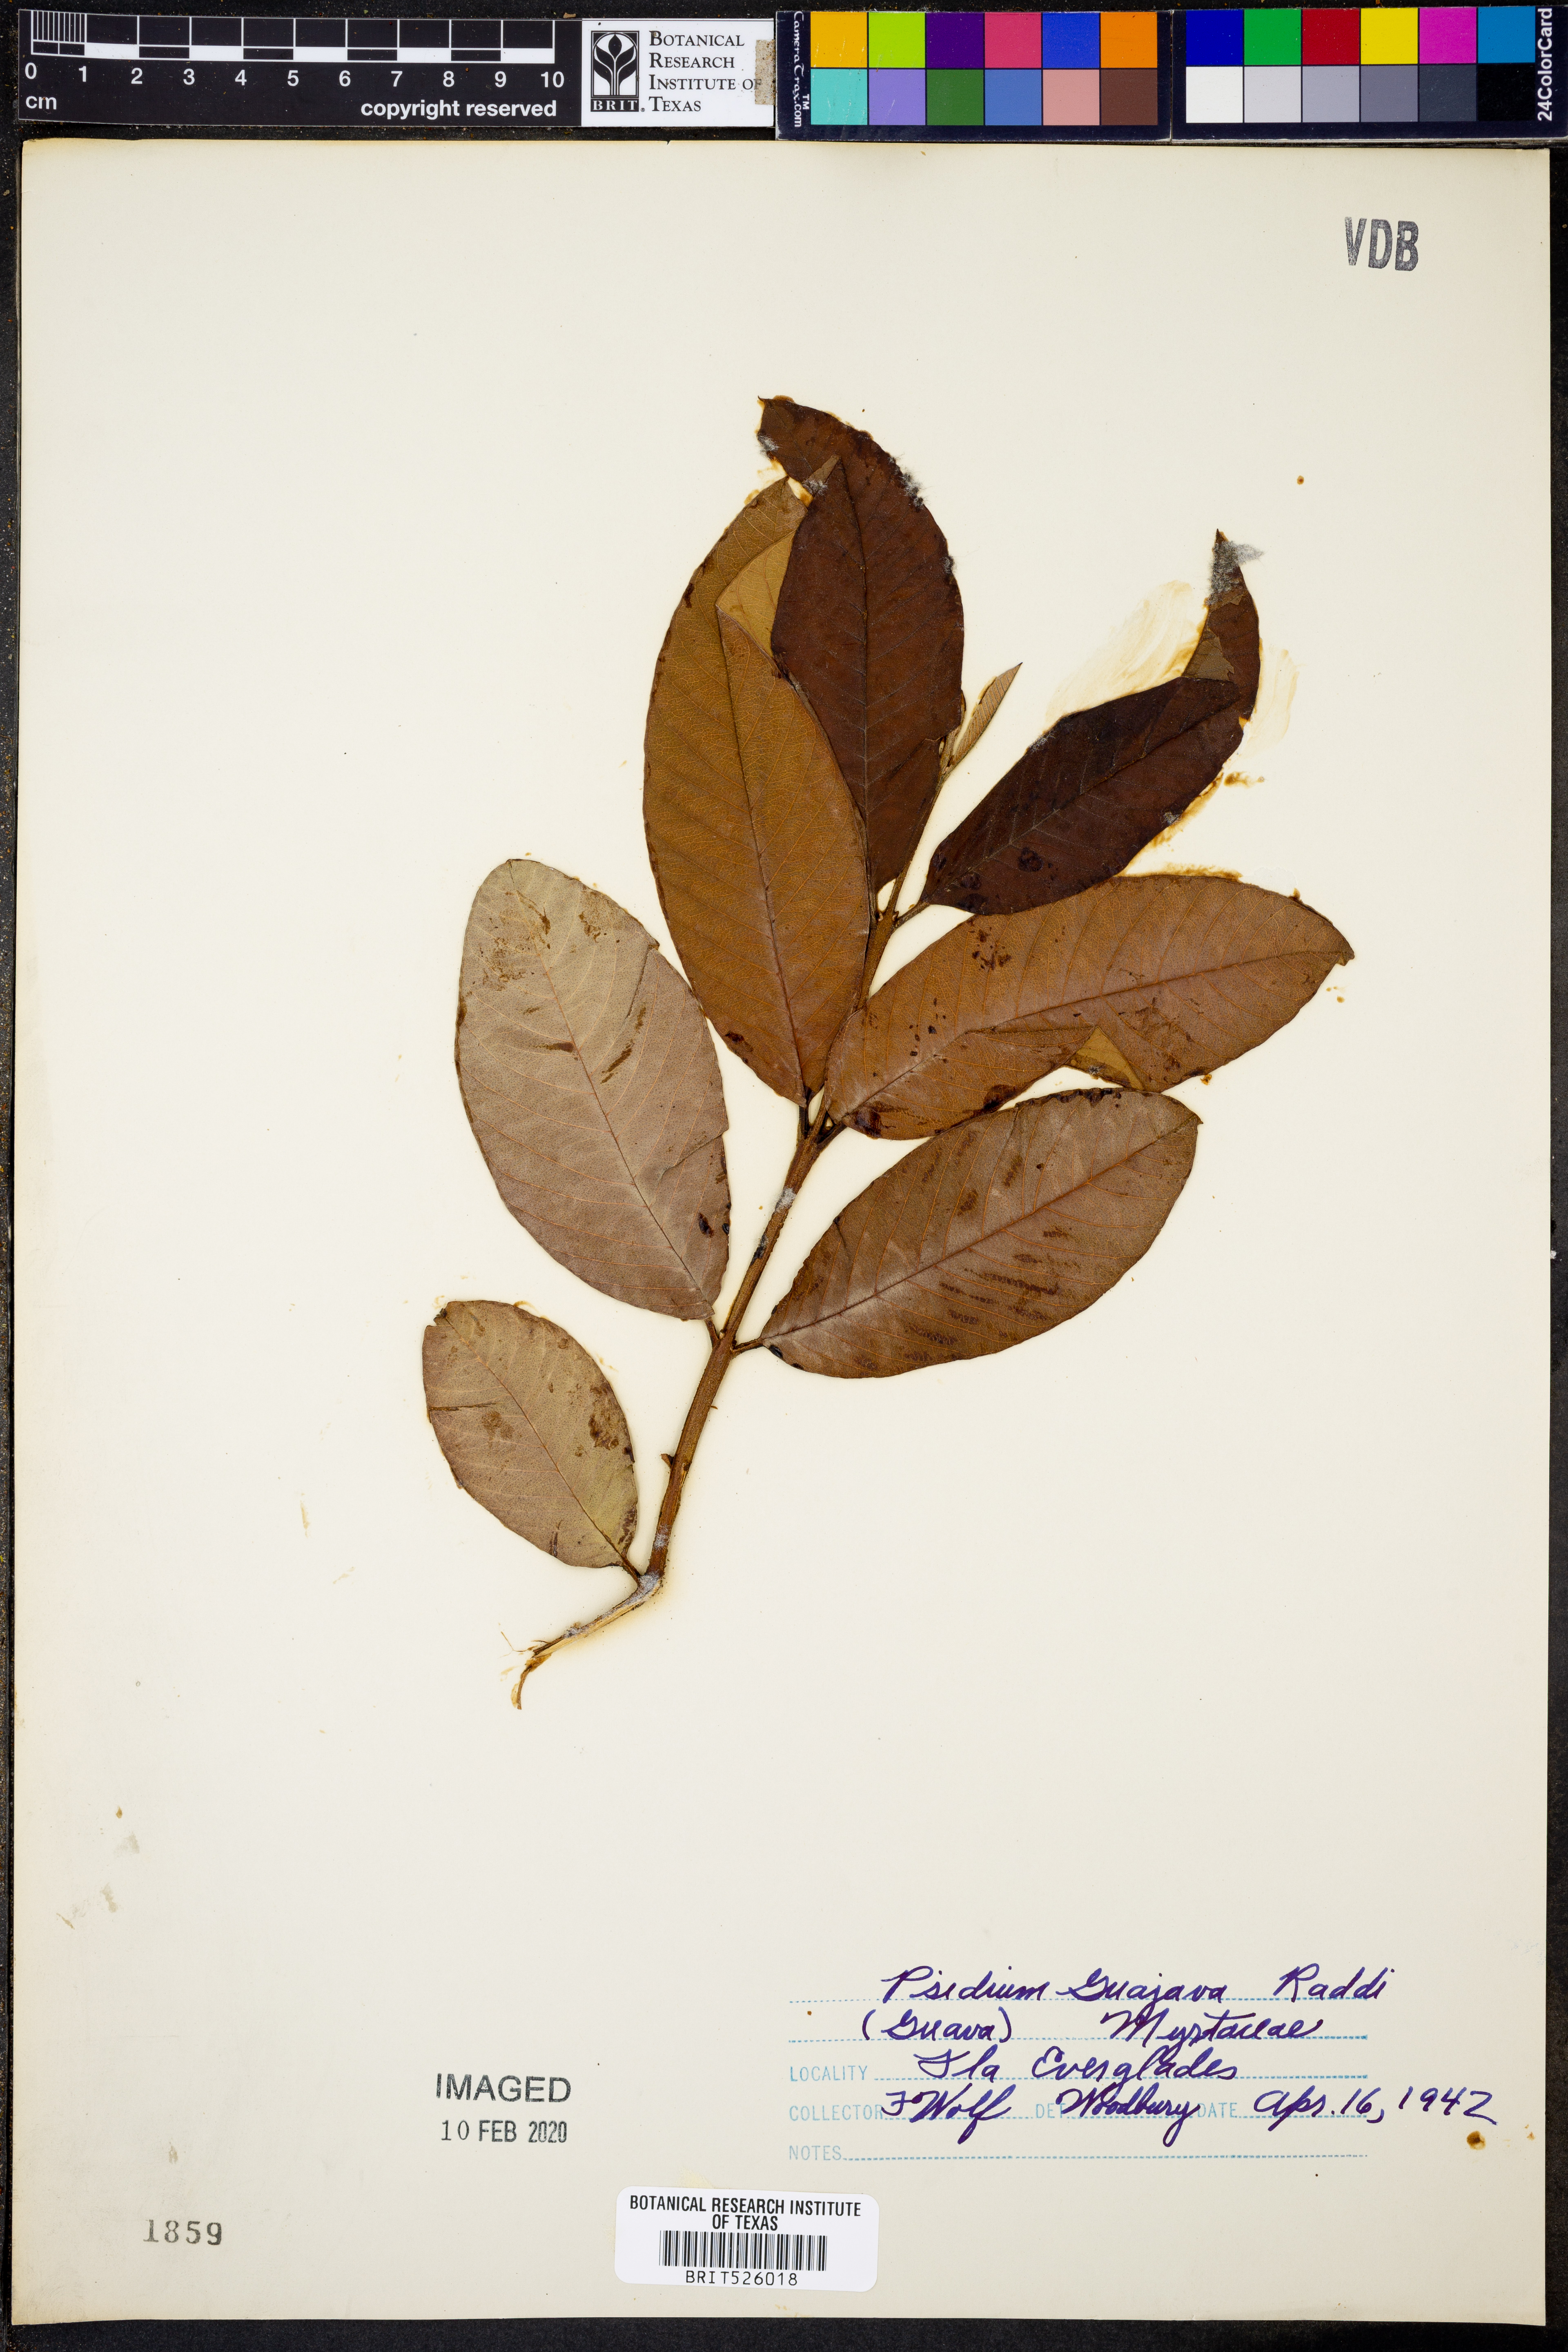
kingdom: Plantae
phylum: Tracheophyta
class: Magnoliopsida
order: Myrtales
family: Myrtaceae
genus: Psidium
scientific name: Psidium guajava
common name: Guava
